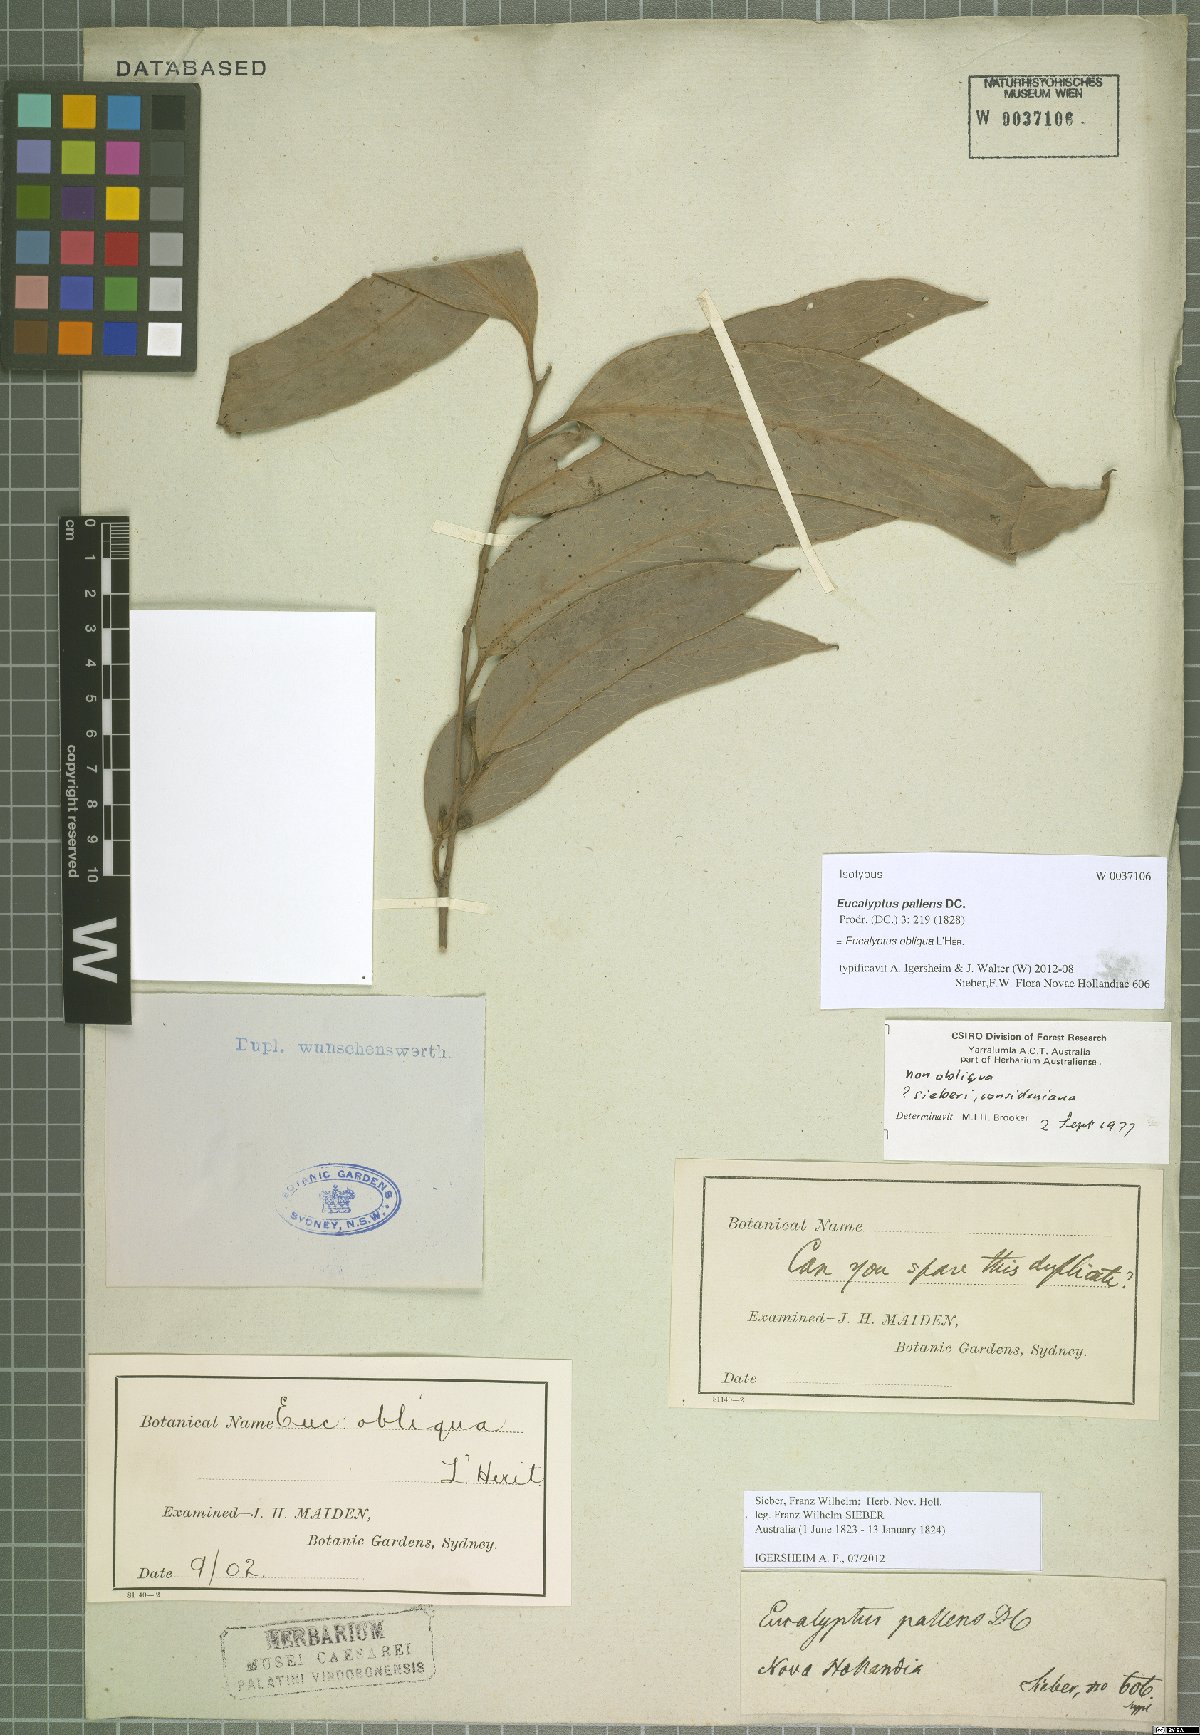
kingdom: Plantae
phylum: Tracheophyta
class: Magnoliopsida
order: Myrtales
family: Myrtaceae
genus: Eucalyptus
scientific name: Eucalyptus obliqua
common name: Messmate stringybark
